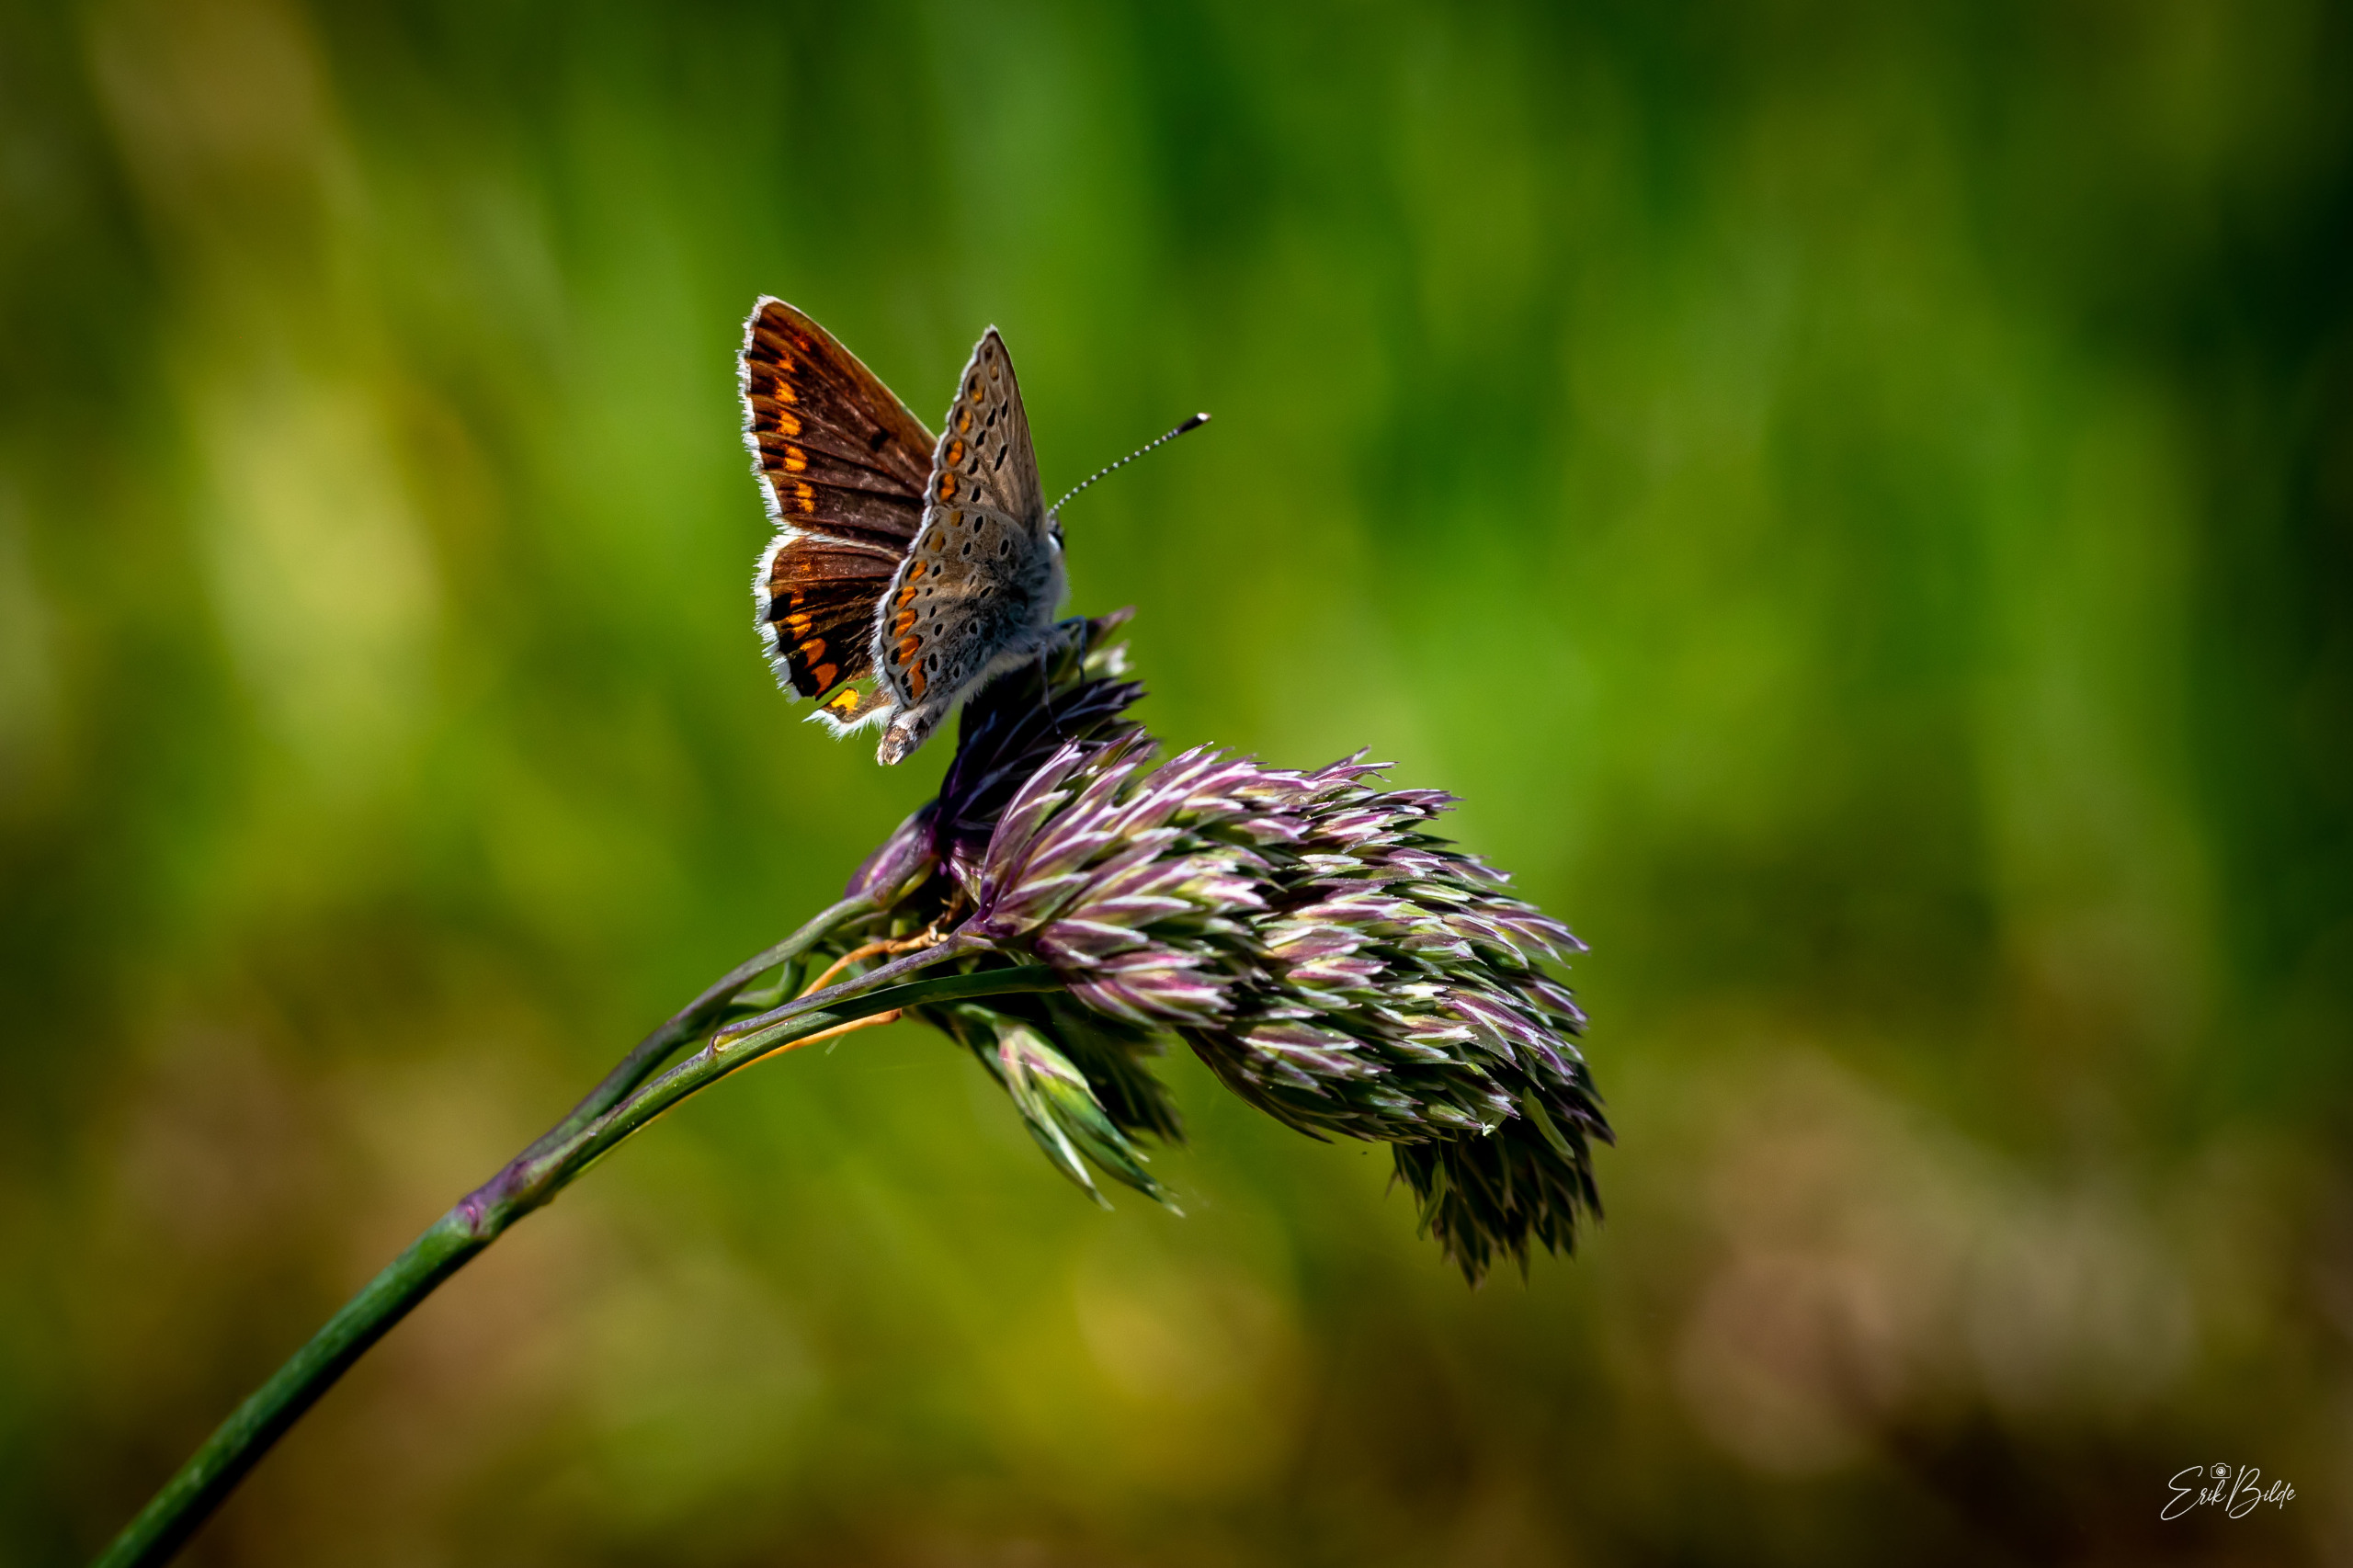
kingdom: Animalia
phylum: Arthropoda
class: Insecta
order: Lepidoptera
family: Lycaenidae
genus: Aricia
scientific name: Aricia agestis
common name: Rødplettet blåfugl
